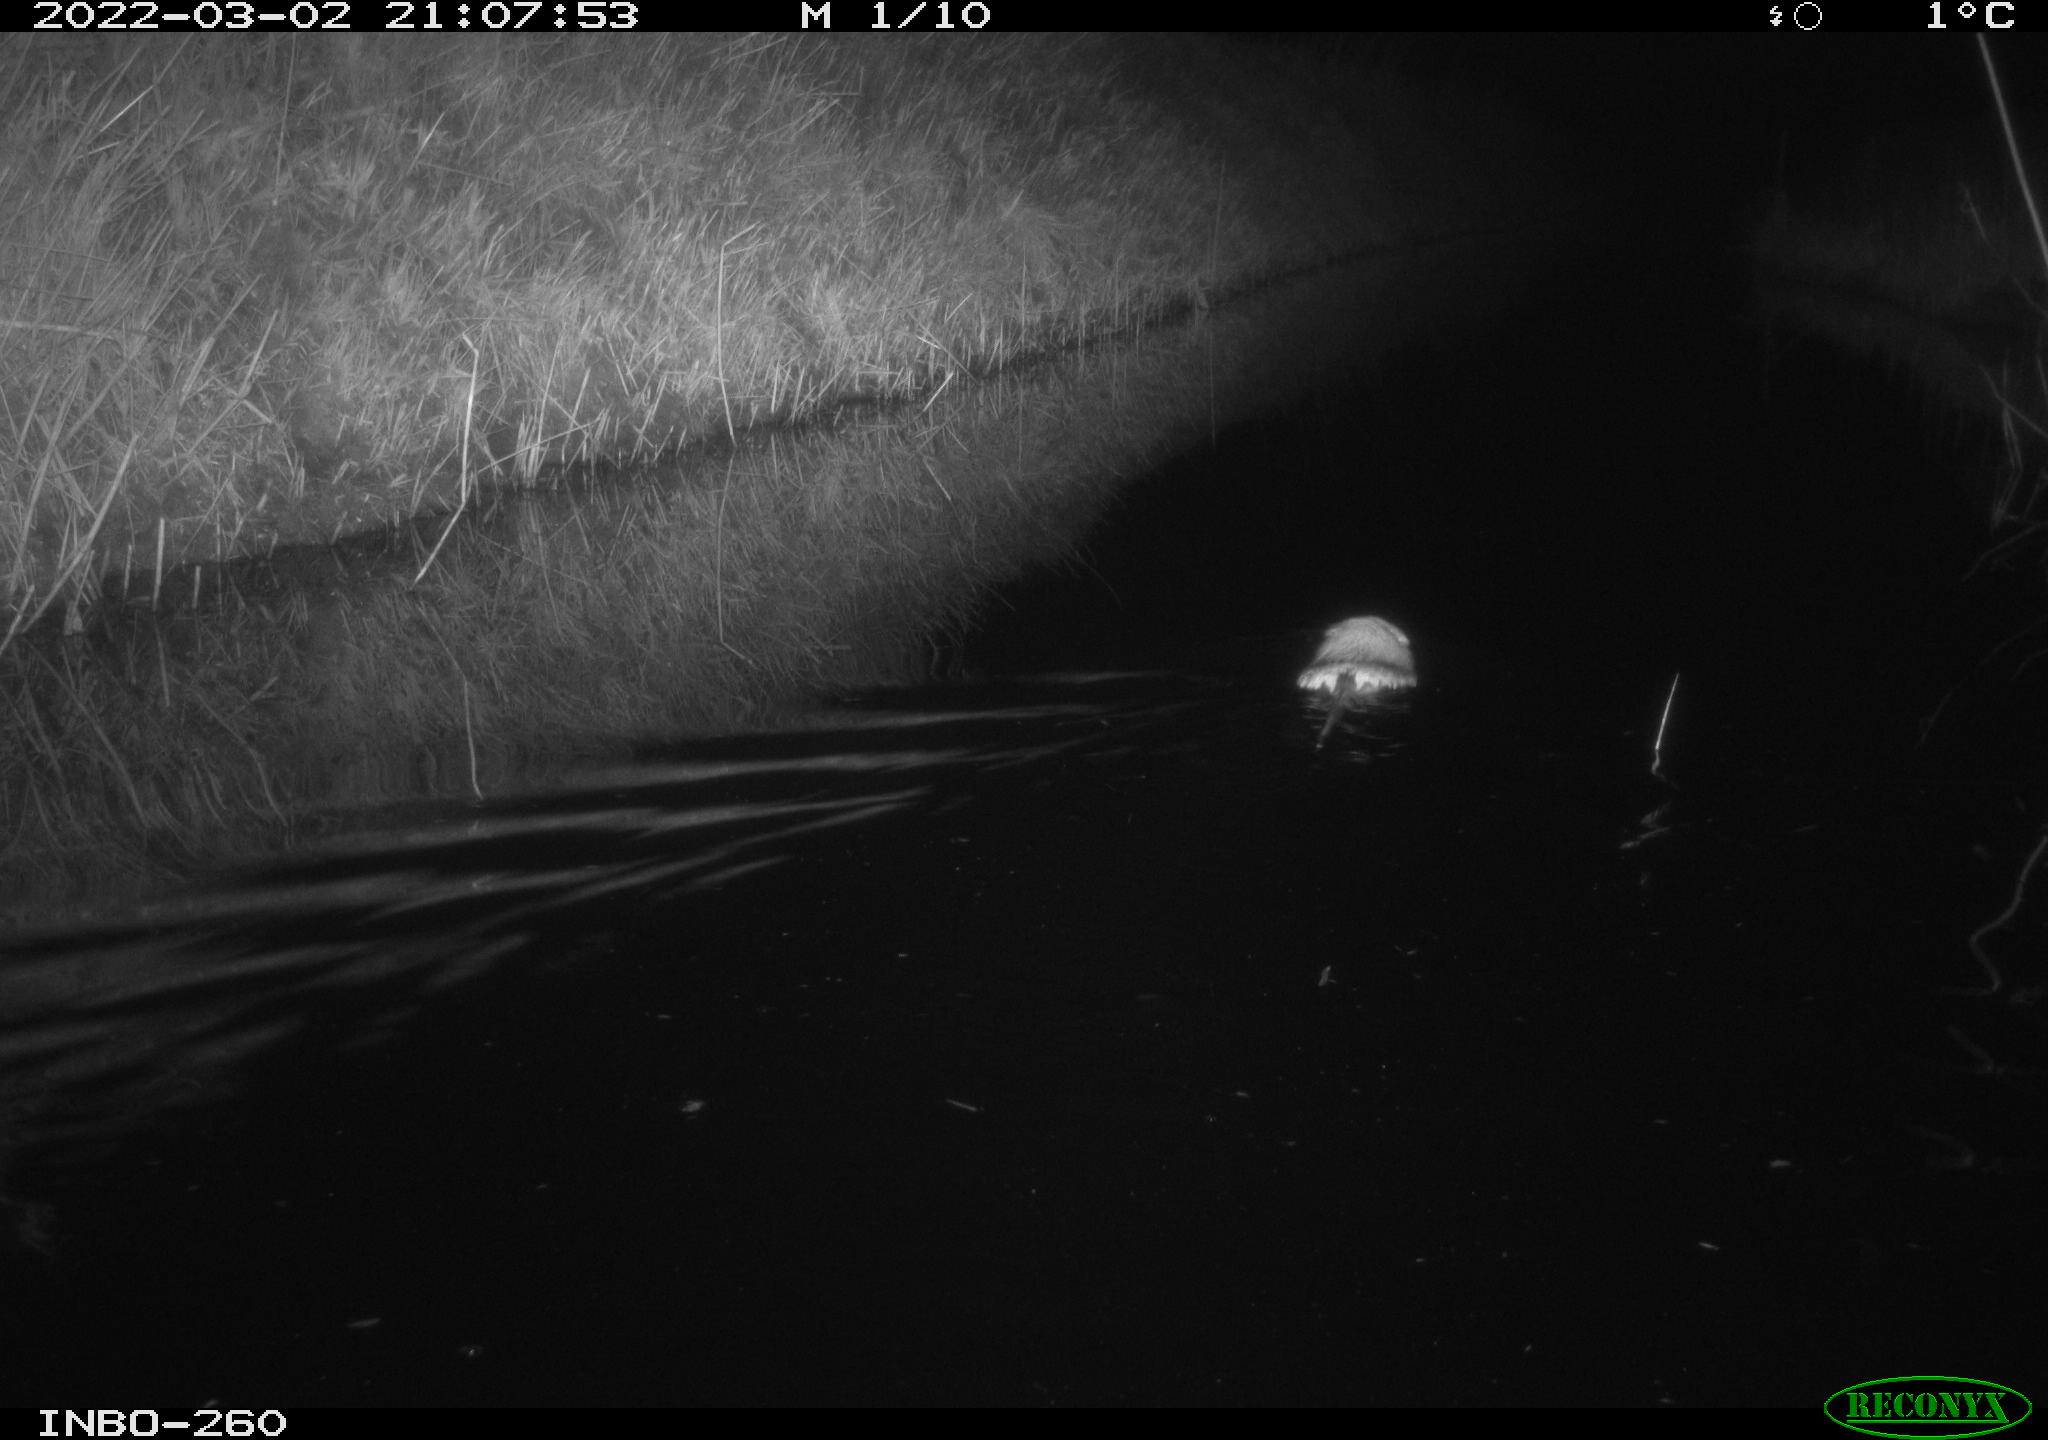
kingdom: Animalia
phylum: Chordata
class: Mammalia
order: Rodentia
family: Cricetidae
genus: Ondatra
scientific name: Ondatra zibethicus
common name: Muskrat
